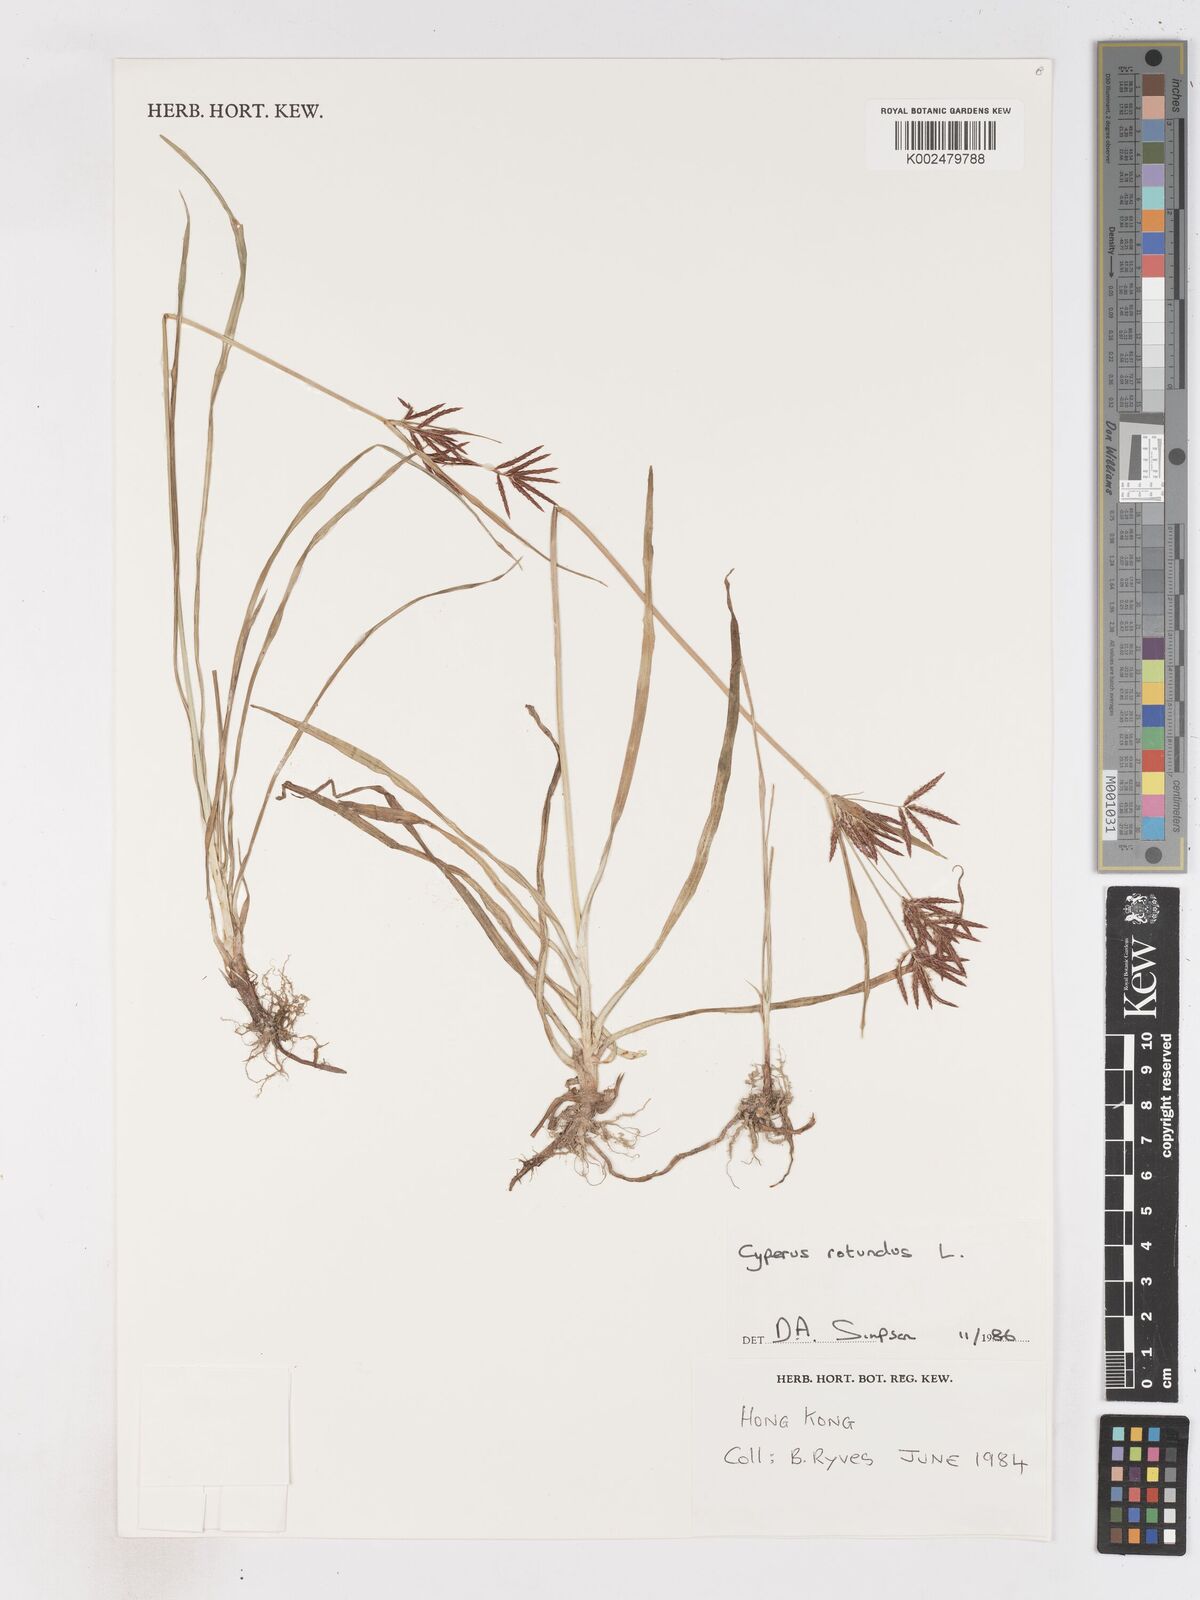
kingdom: Plantae
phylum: Tracheophyta
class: Liliopsida
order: Poales
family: Cyperaceae
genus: Cyperus
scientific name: Cyperus rotundus
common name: Nutgrass
